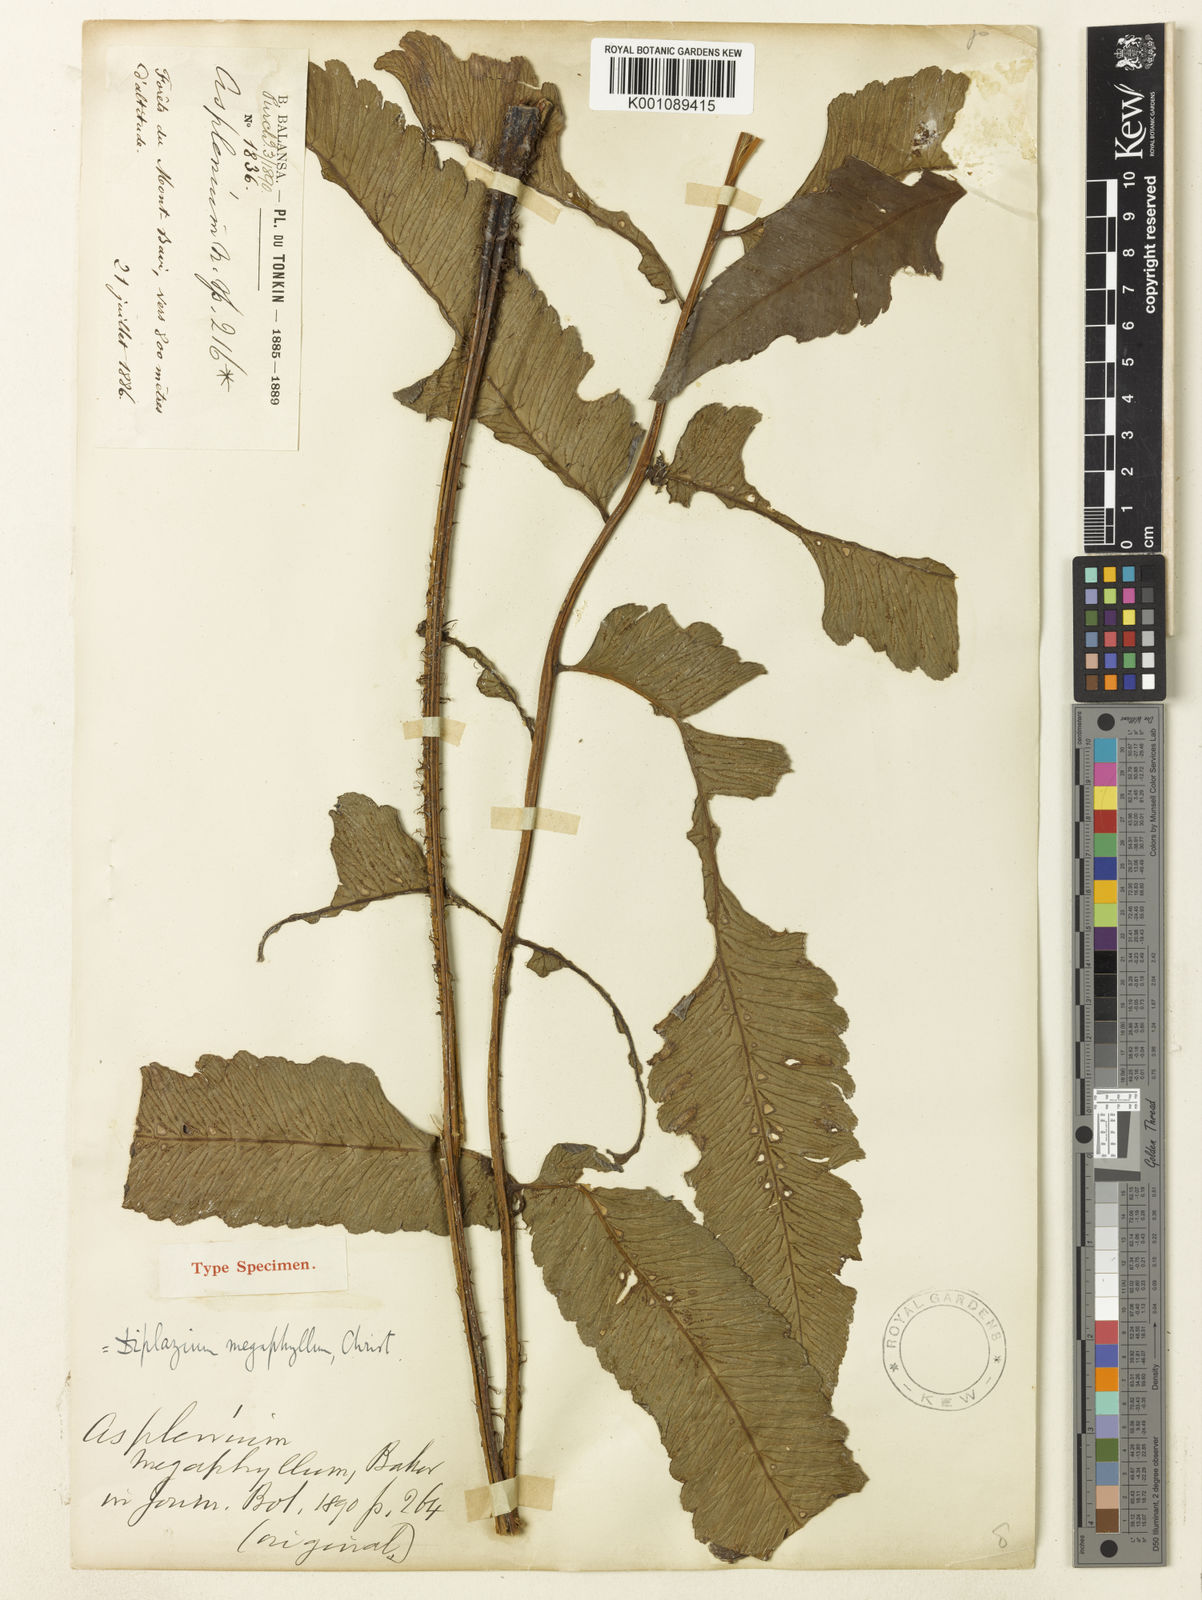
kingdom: Plantae
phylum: Tracheophyta
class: Polypodiopsida
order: Polypodiales
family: Athyriaceae
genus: Diplazium
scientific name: Diplazium megaphyllum
